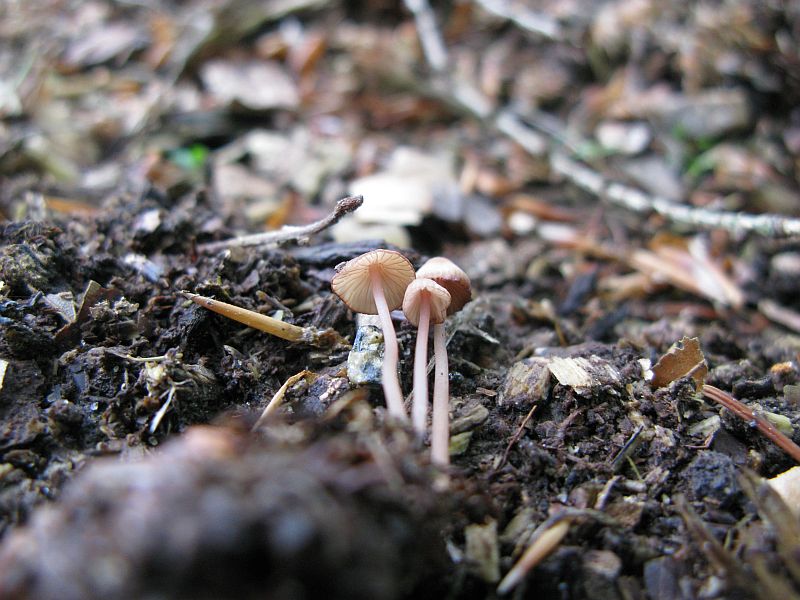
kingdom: Fungi
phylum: Basidiomycota
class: Agaricomycetes
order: Agaricales
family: Mycenaceae
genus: Mycena
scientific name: Mycena sanguinolenta
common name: rødmælket huesvamp
